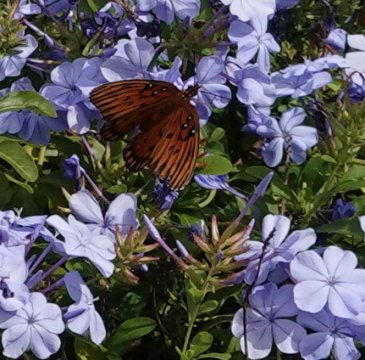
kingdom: Animalia
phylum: Arthropoda
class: Insecta
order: Lepidoptera
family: Nymphalidae
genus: Dione
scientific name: Dione vanillae
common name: Gulf Fritillary
